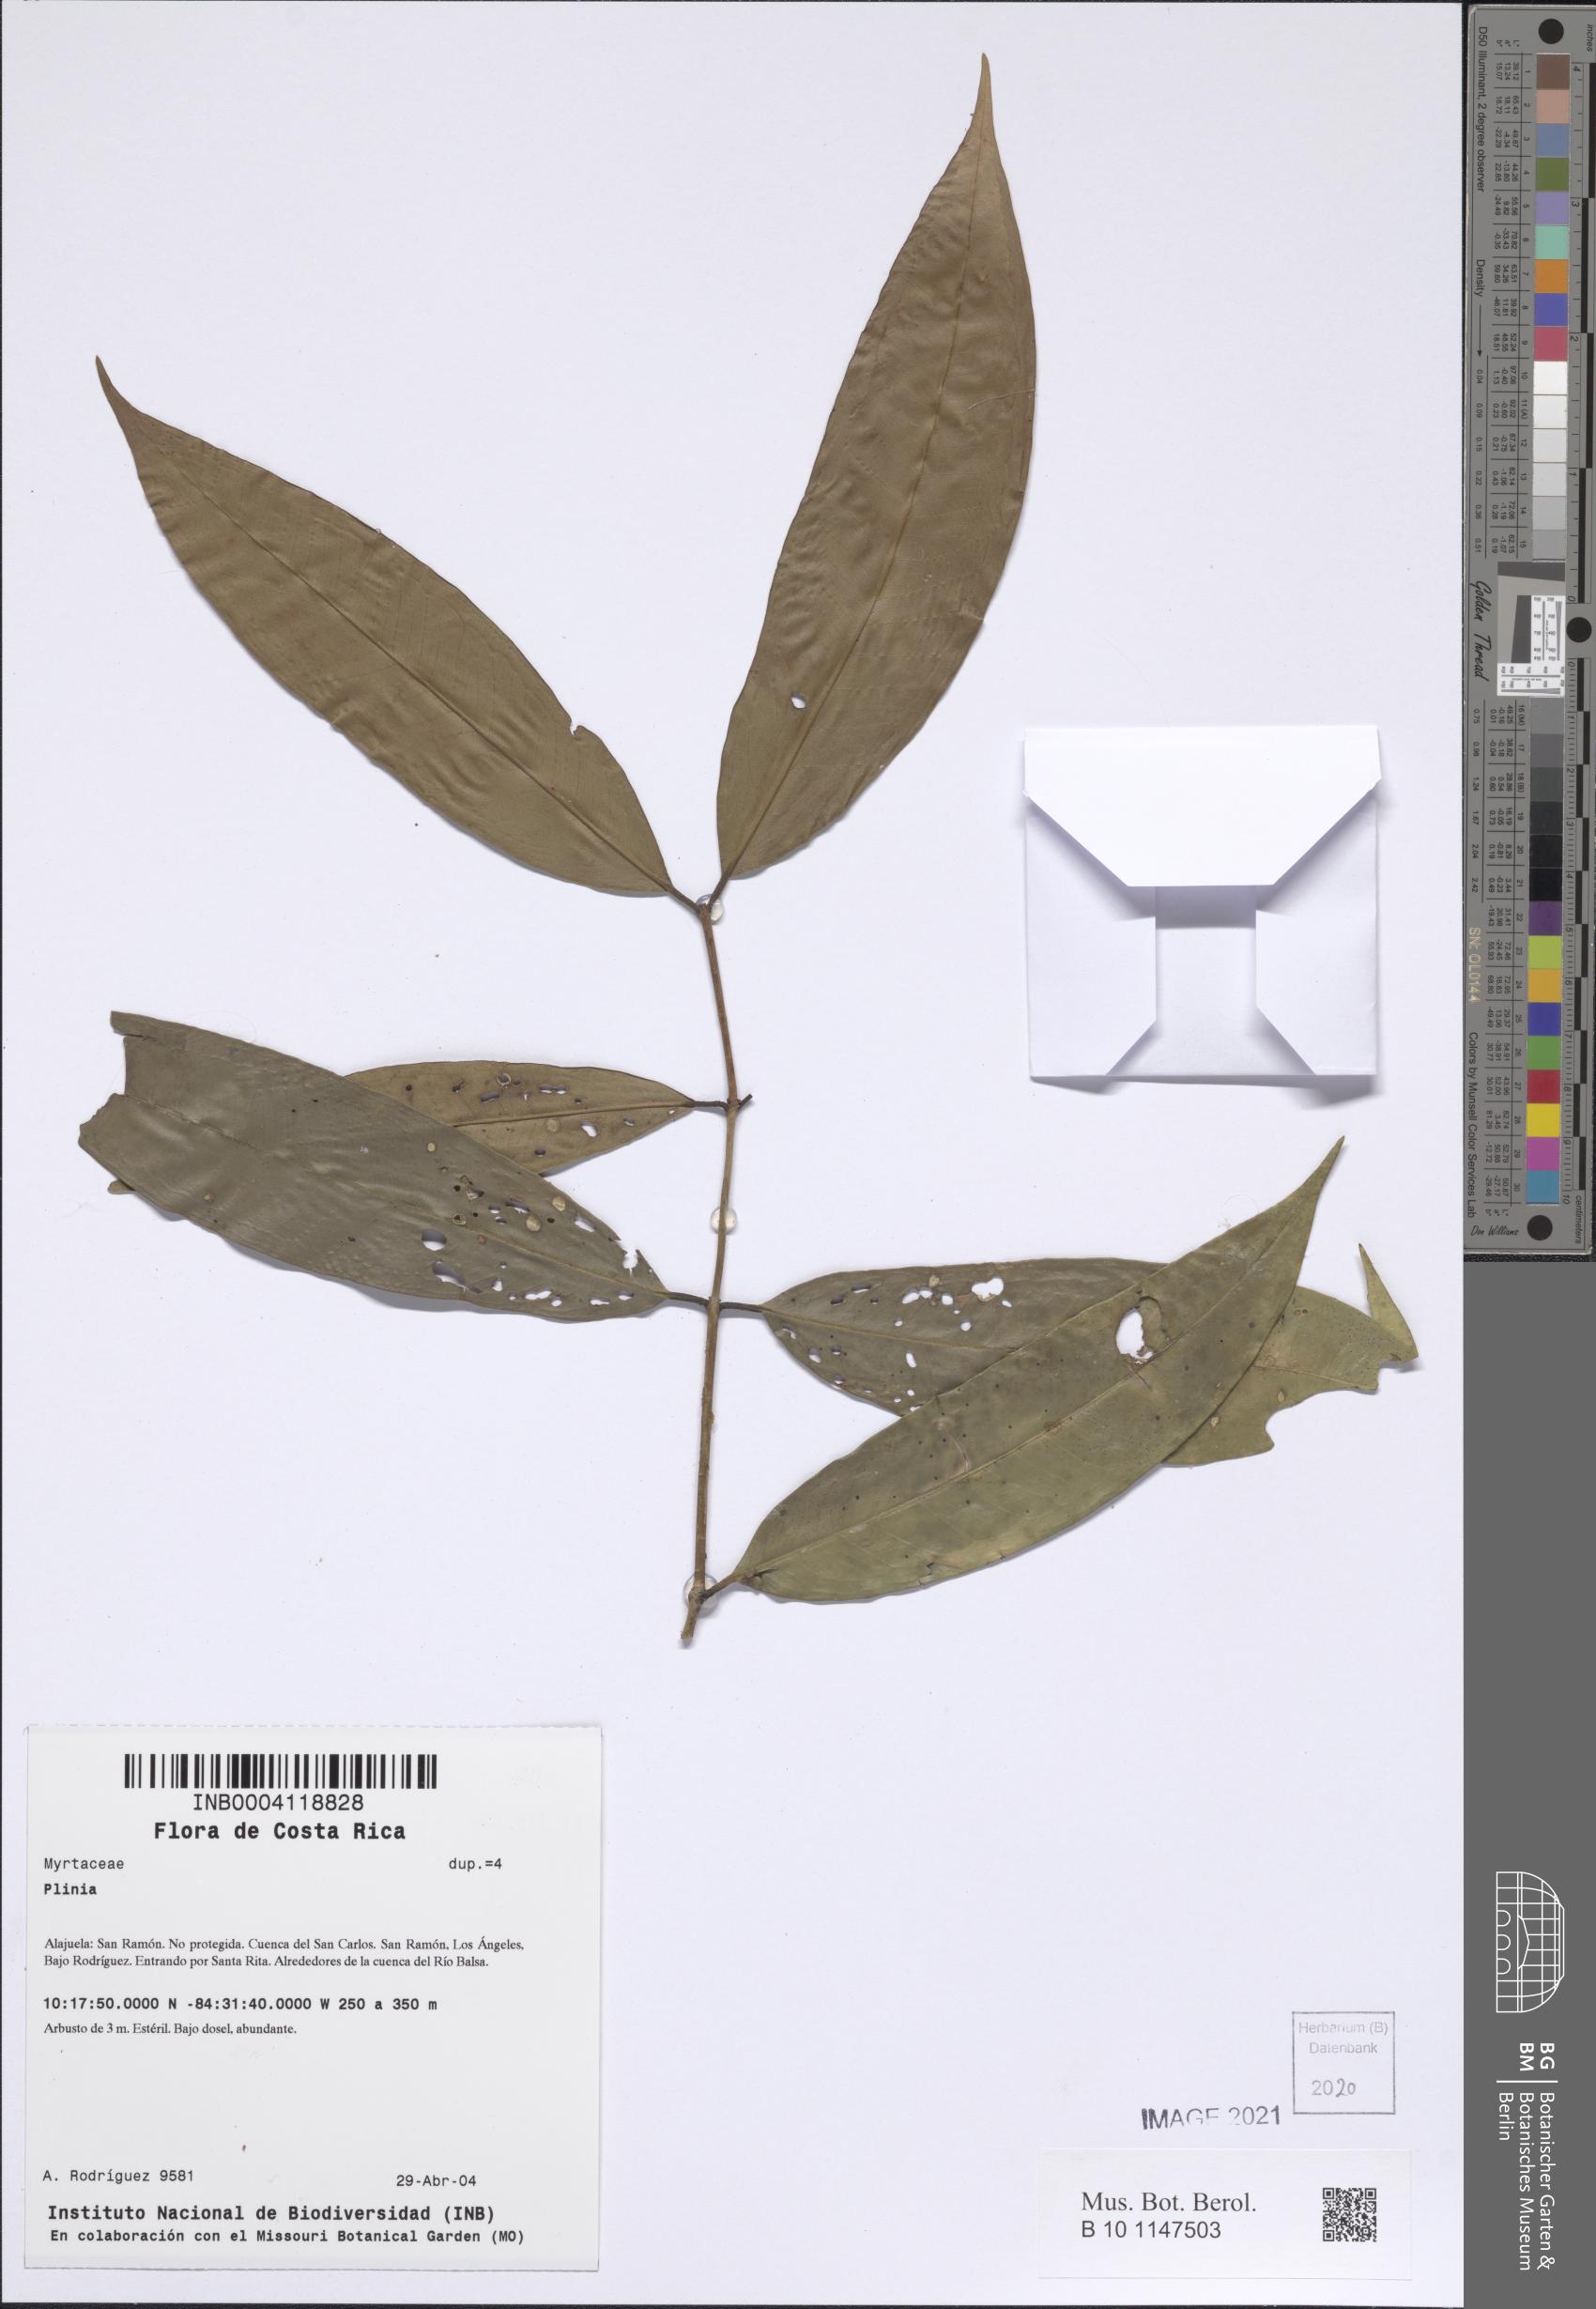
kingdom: Plantae
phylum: Tracheophyta
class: Magnoliopsida
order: Myrtales
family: Myrtaceae
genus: Plinia
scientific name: Plinia
